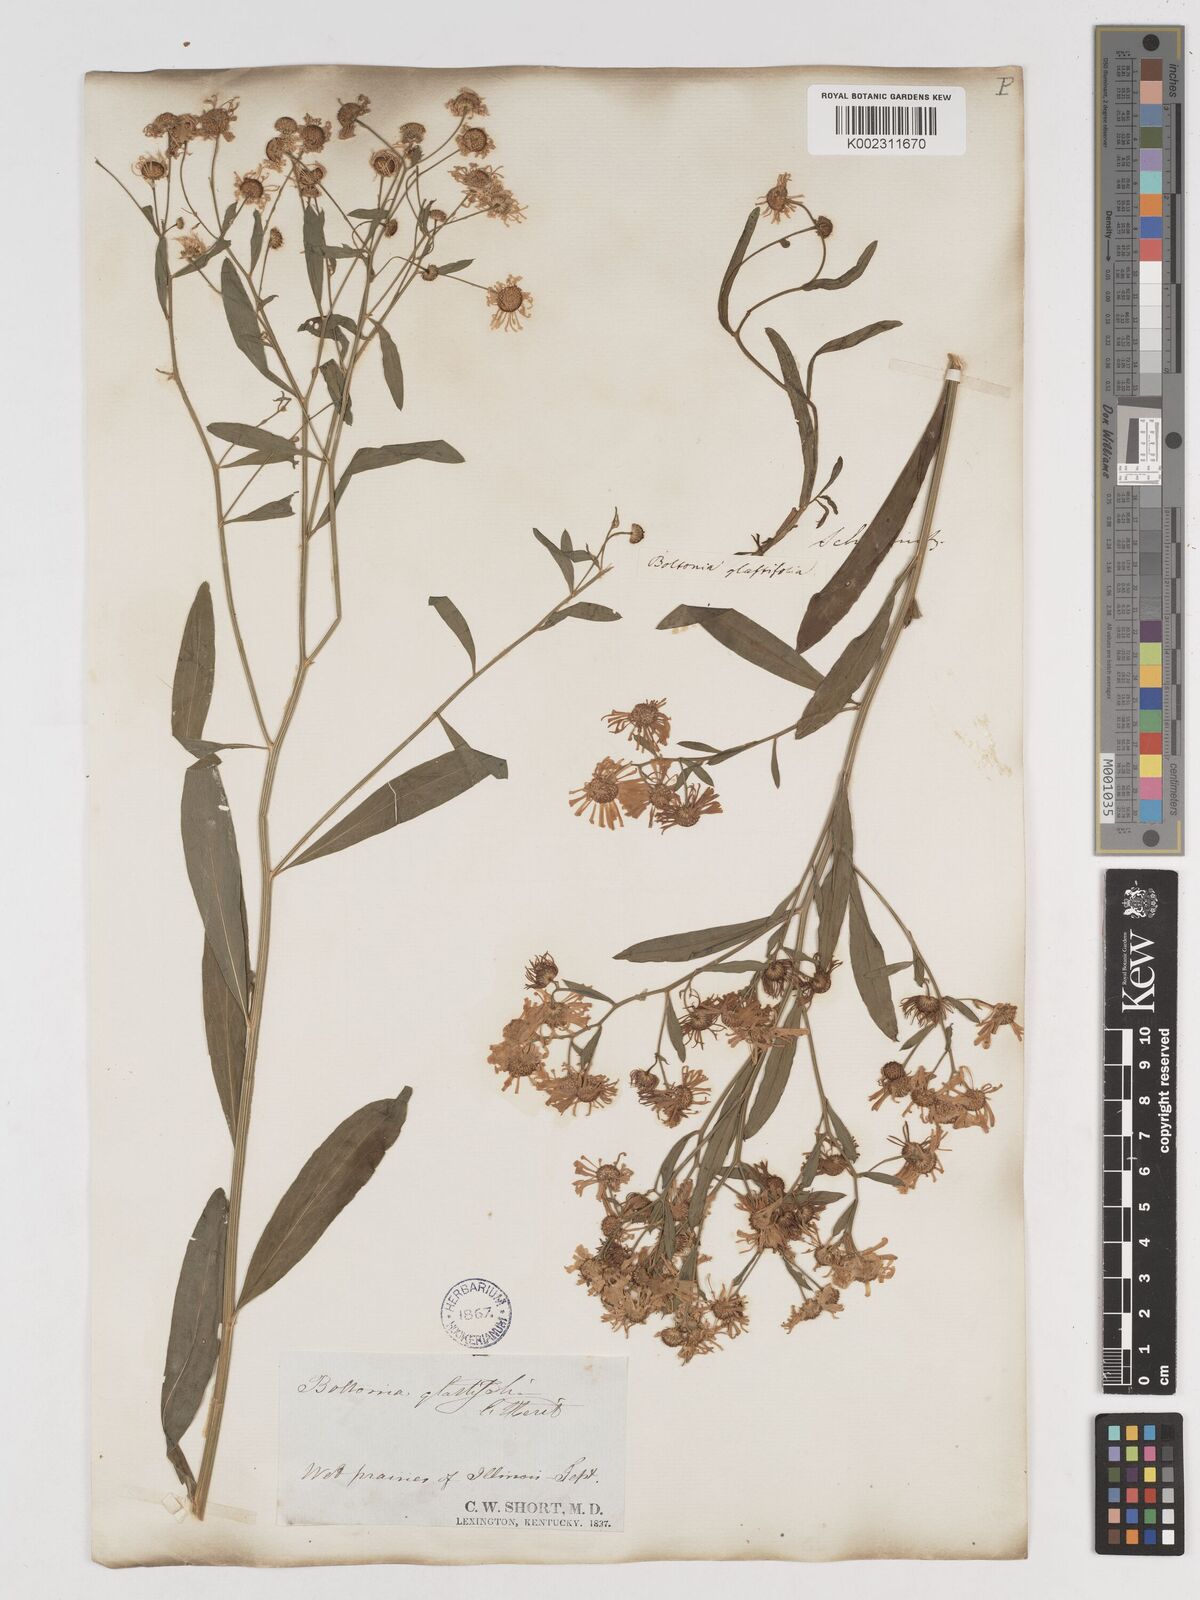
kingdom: Plantae
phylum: Tracheophyta
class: Magnoliopsida
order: Asterales
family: Asteraceae
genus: Boltonia
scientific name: Boltonia glastifolia
